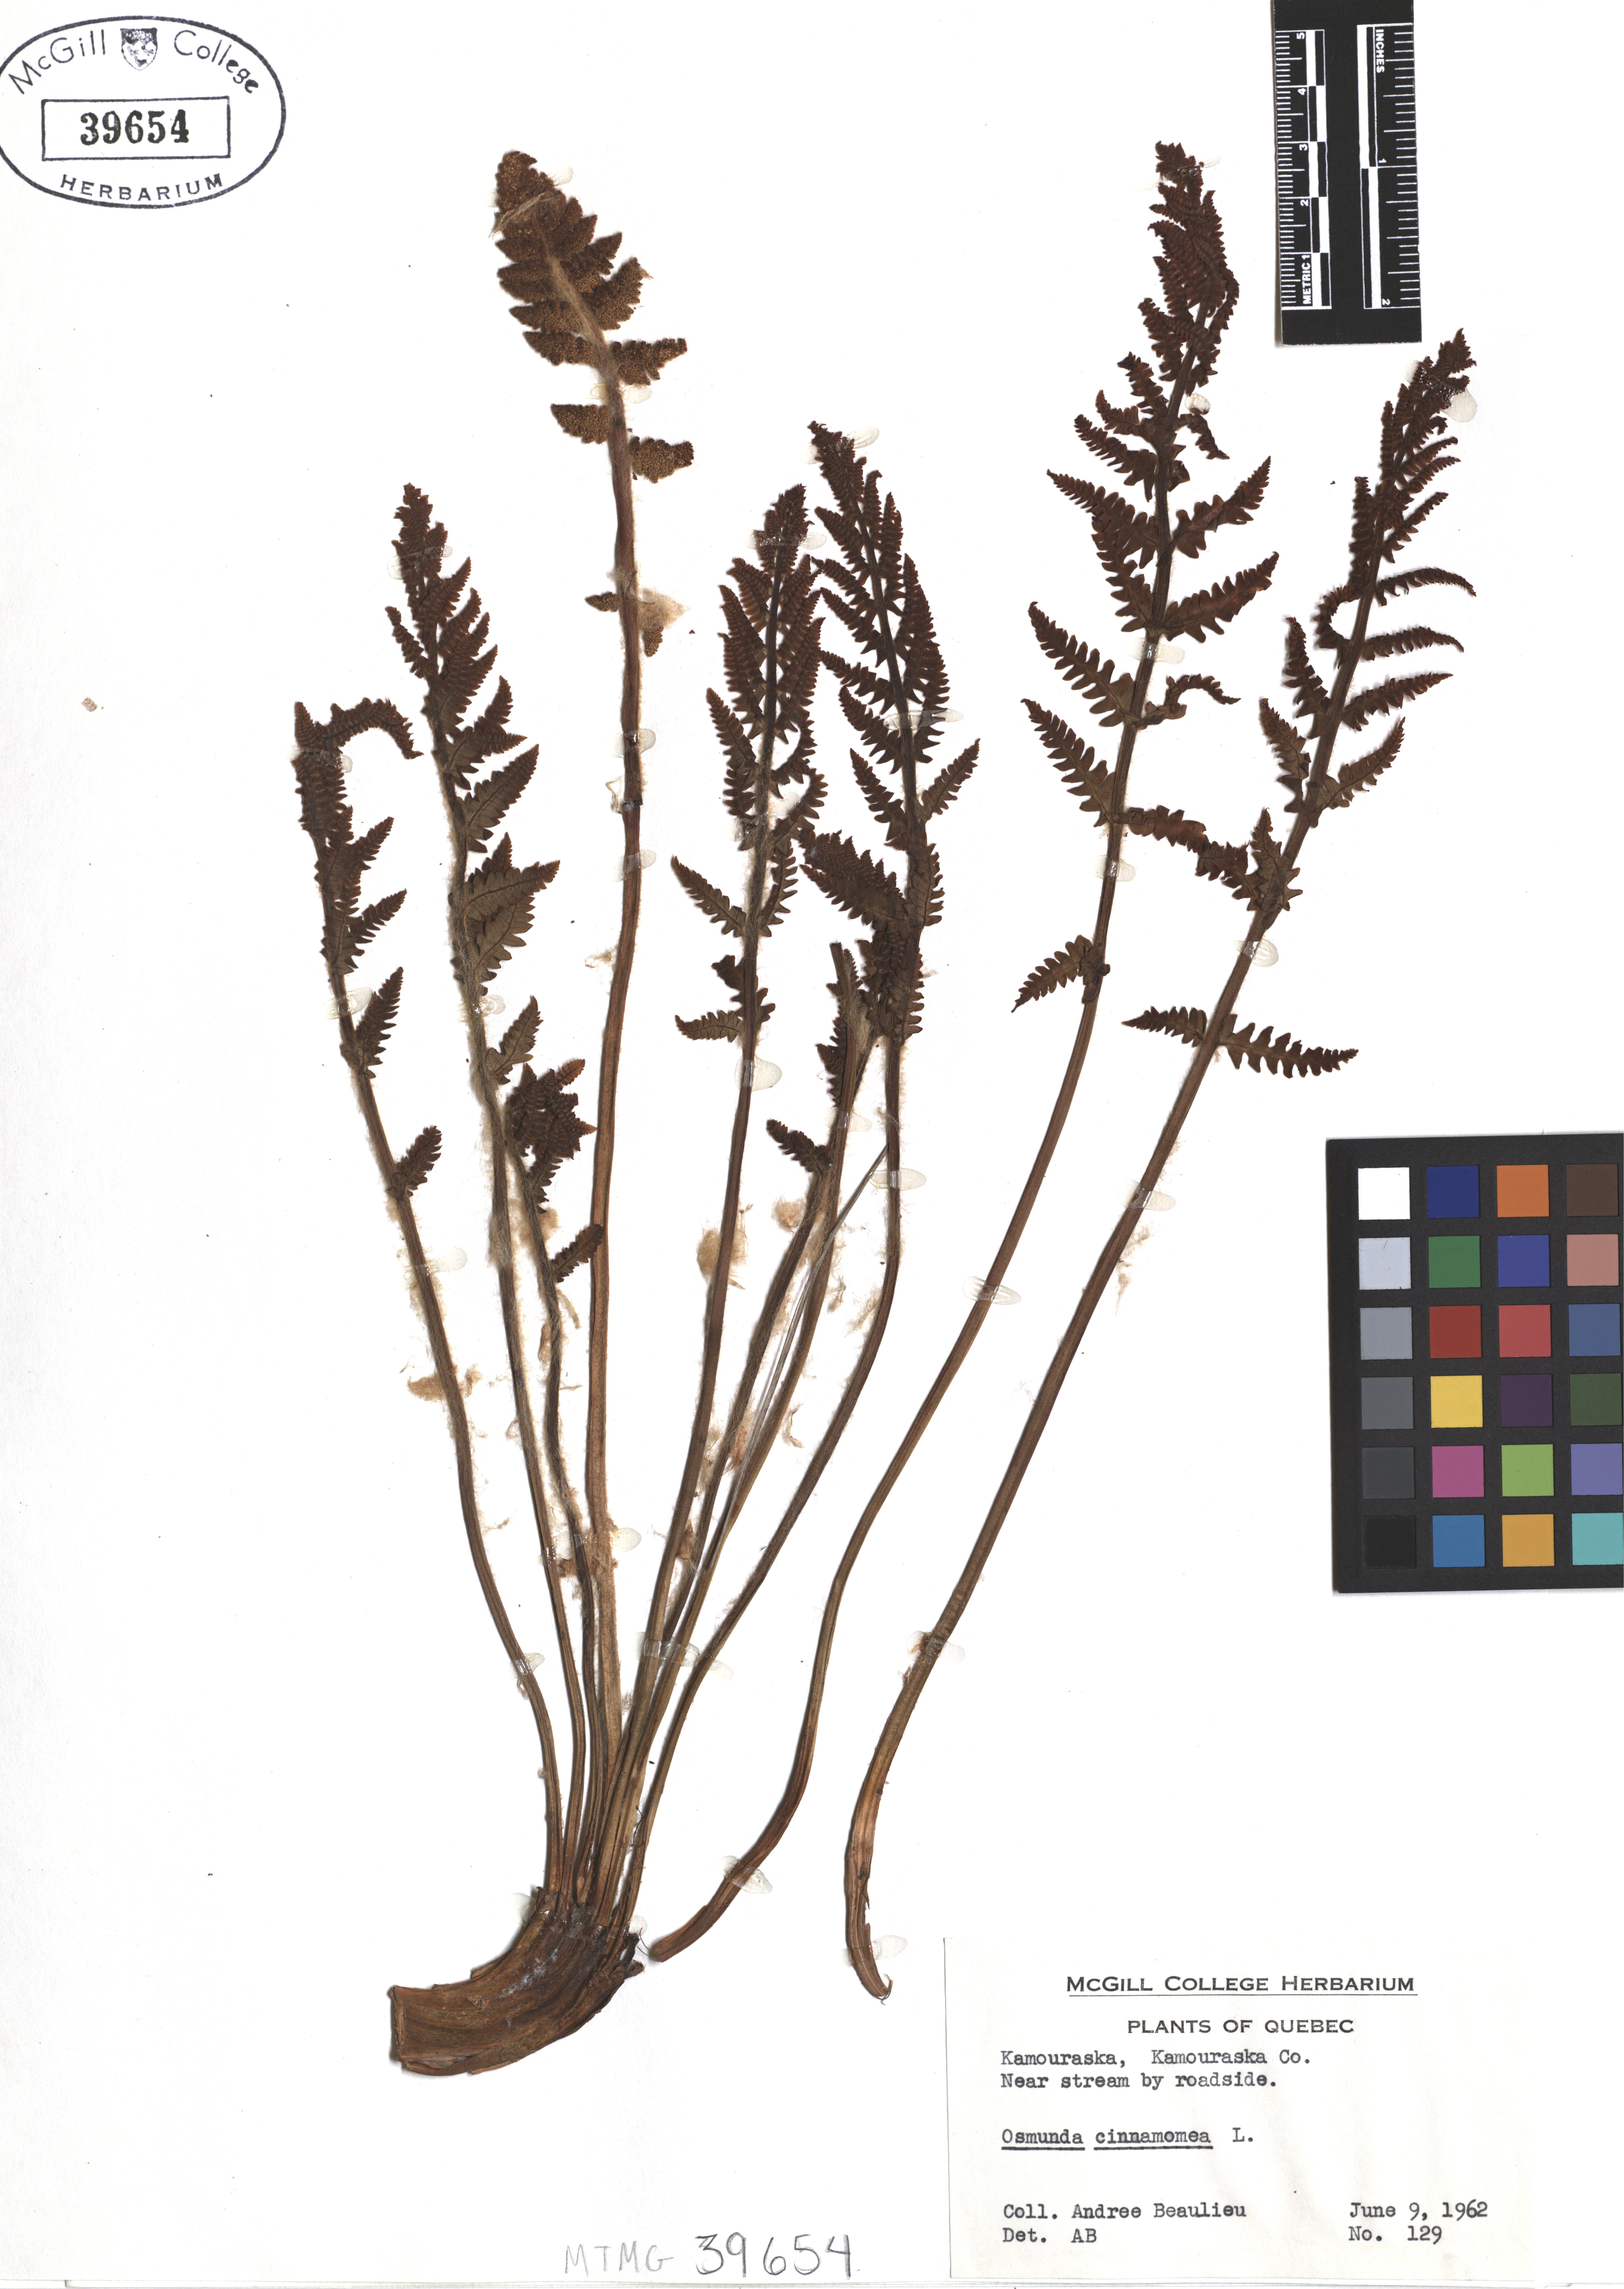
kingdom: Plantae
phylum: Tracheophyta
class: Polypodiopsida
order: Osmundales
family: Osmundaceae
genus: Osmundastrum
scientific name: Osmundastrum cinnamomeum
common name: Cinnamon fern
